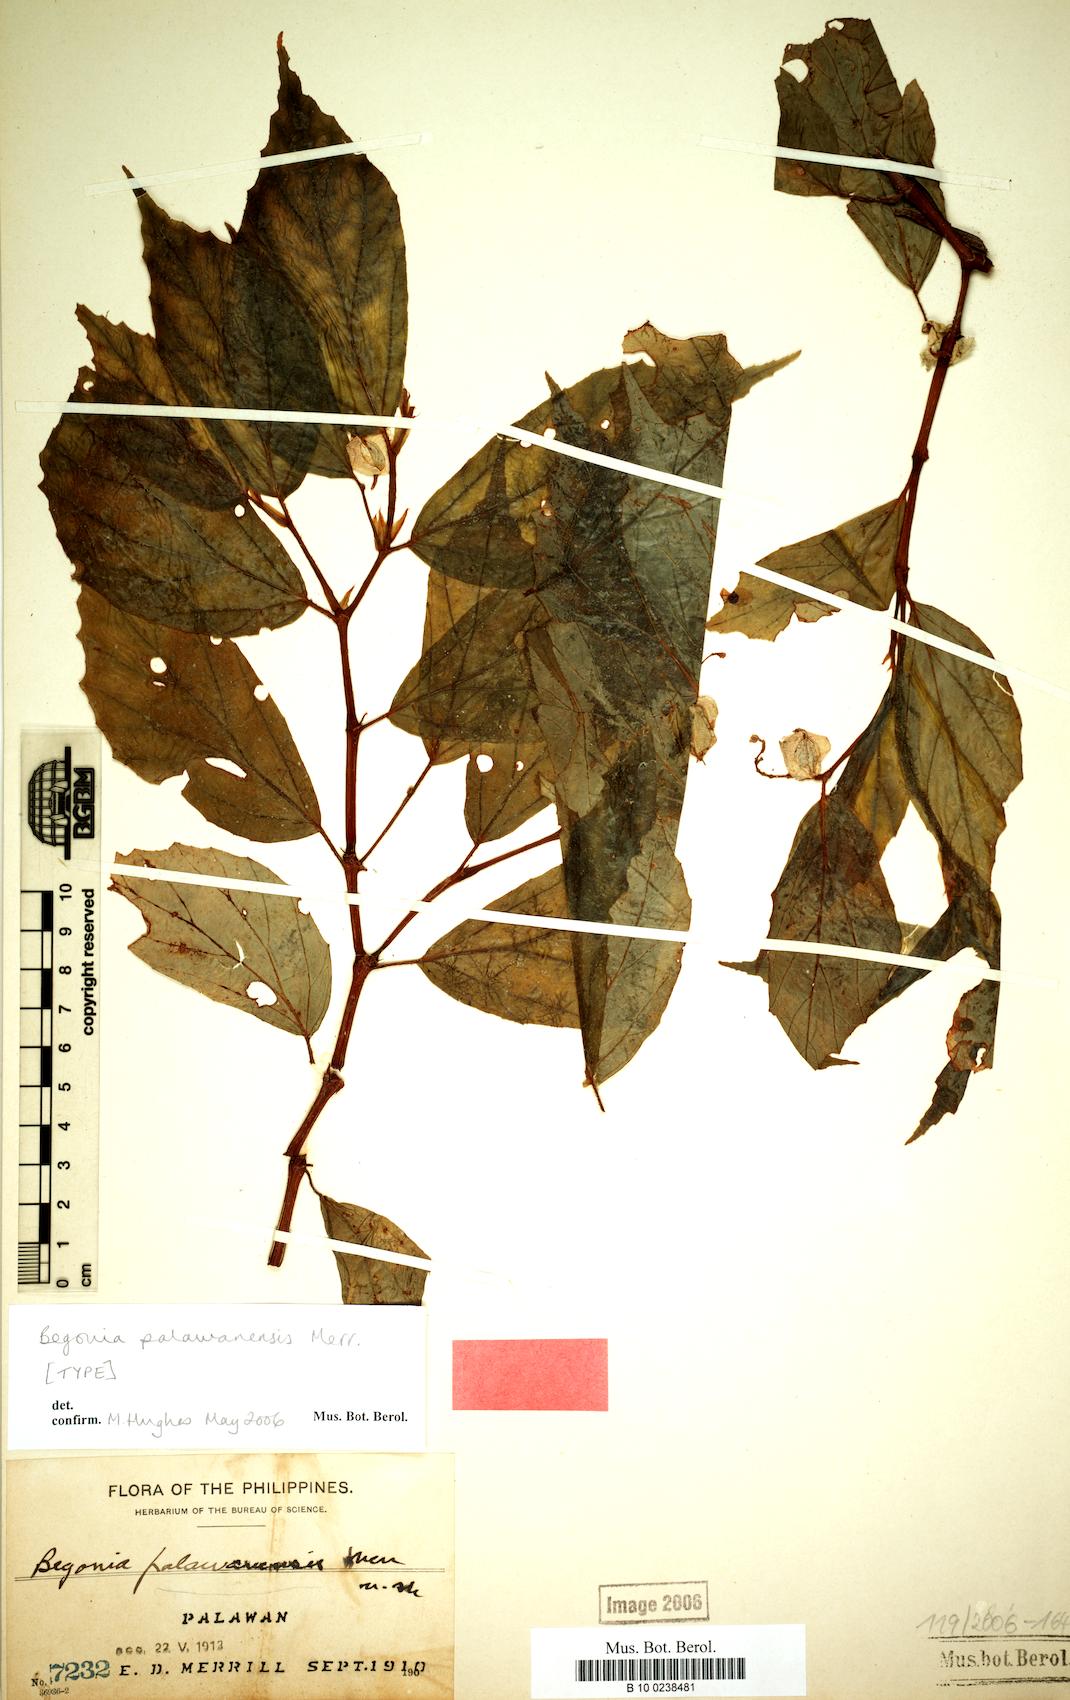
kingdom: Plantae
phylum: Tracheophyta
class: Magnoliopsida
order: Cucurbitales
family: Begoniaceae
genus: Begonia
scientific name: Begonia palawanensis
